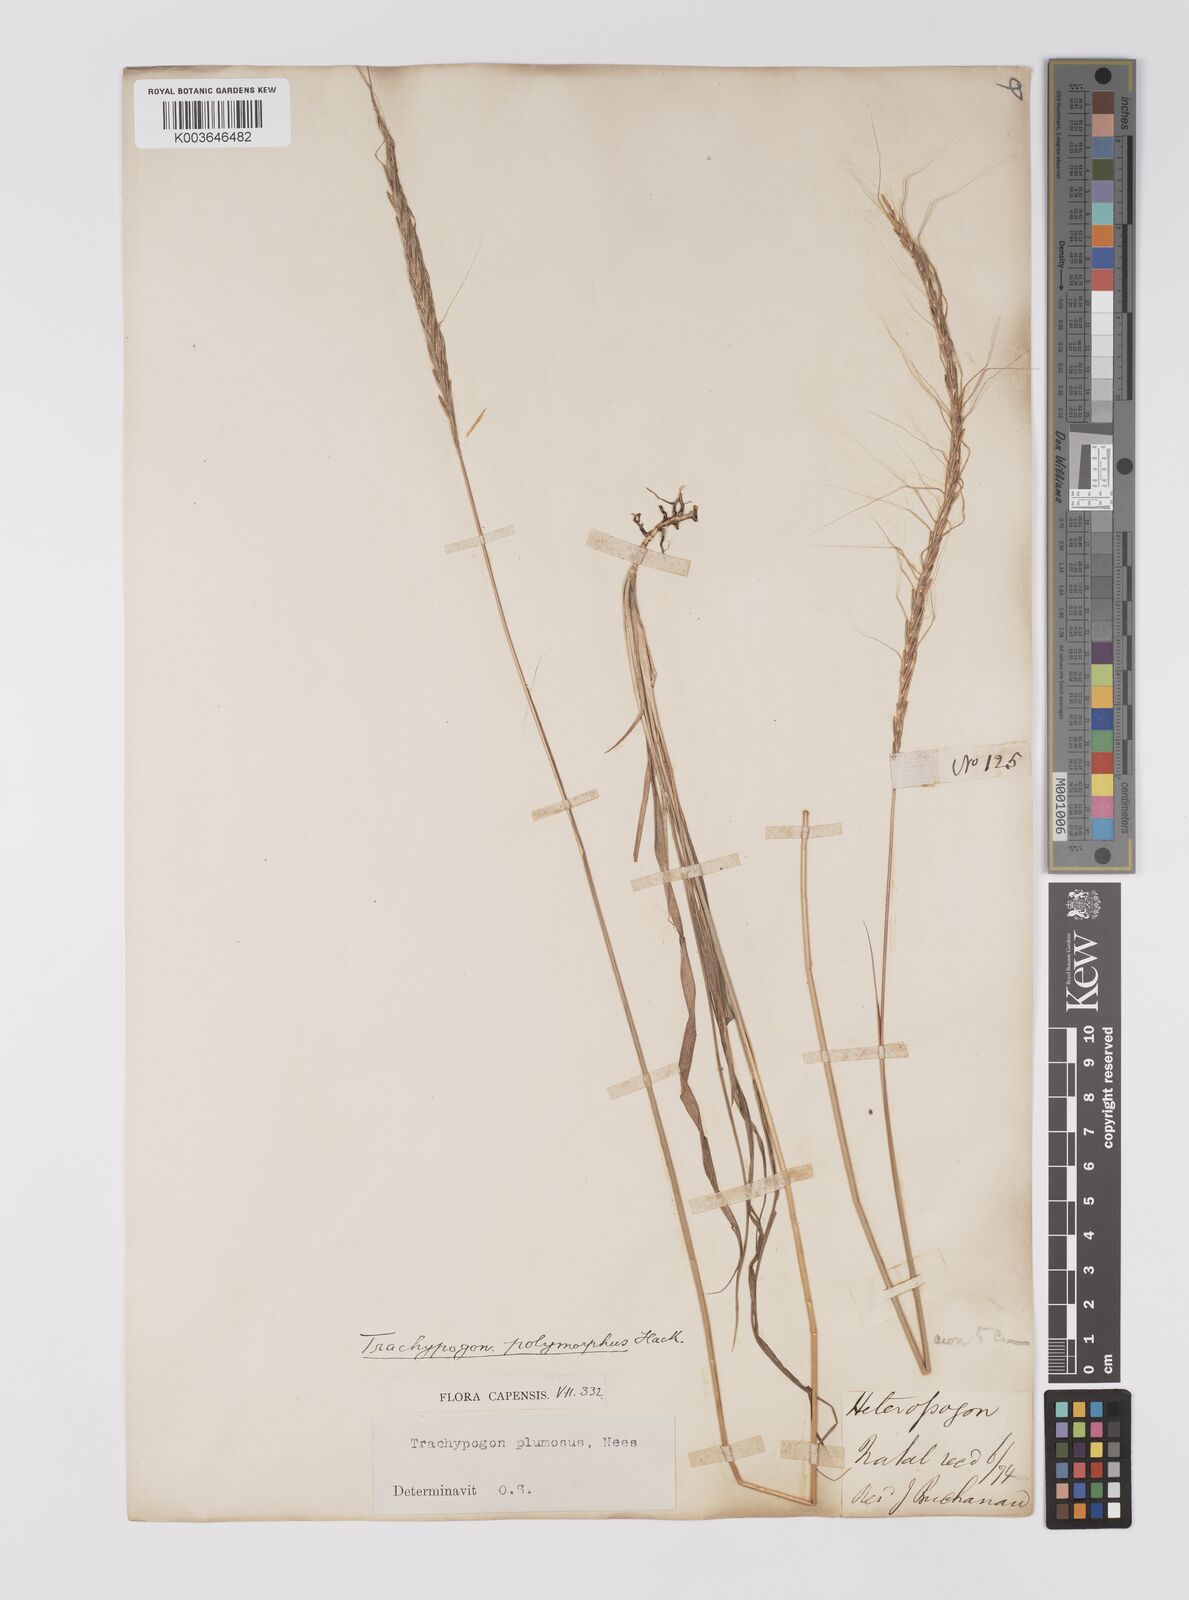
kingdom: Plantae
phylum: Tracheophyta
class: Liliopsida
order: Poales
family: Poaceae
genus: Trachypogon
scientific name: Trachypogon spicatus
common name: Crinkle-awn
